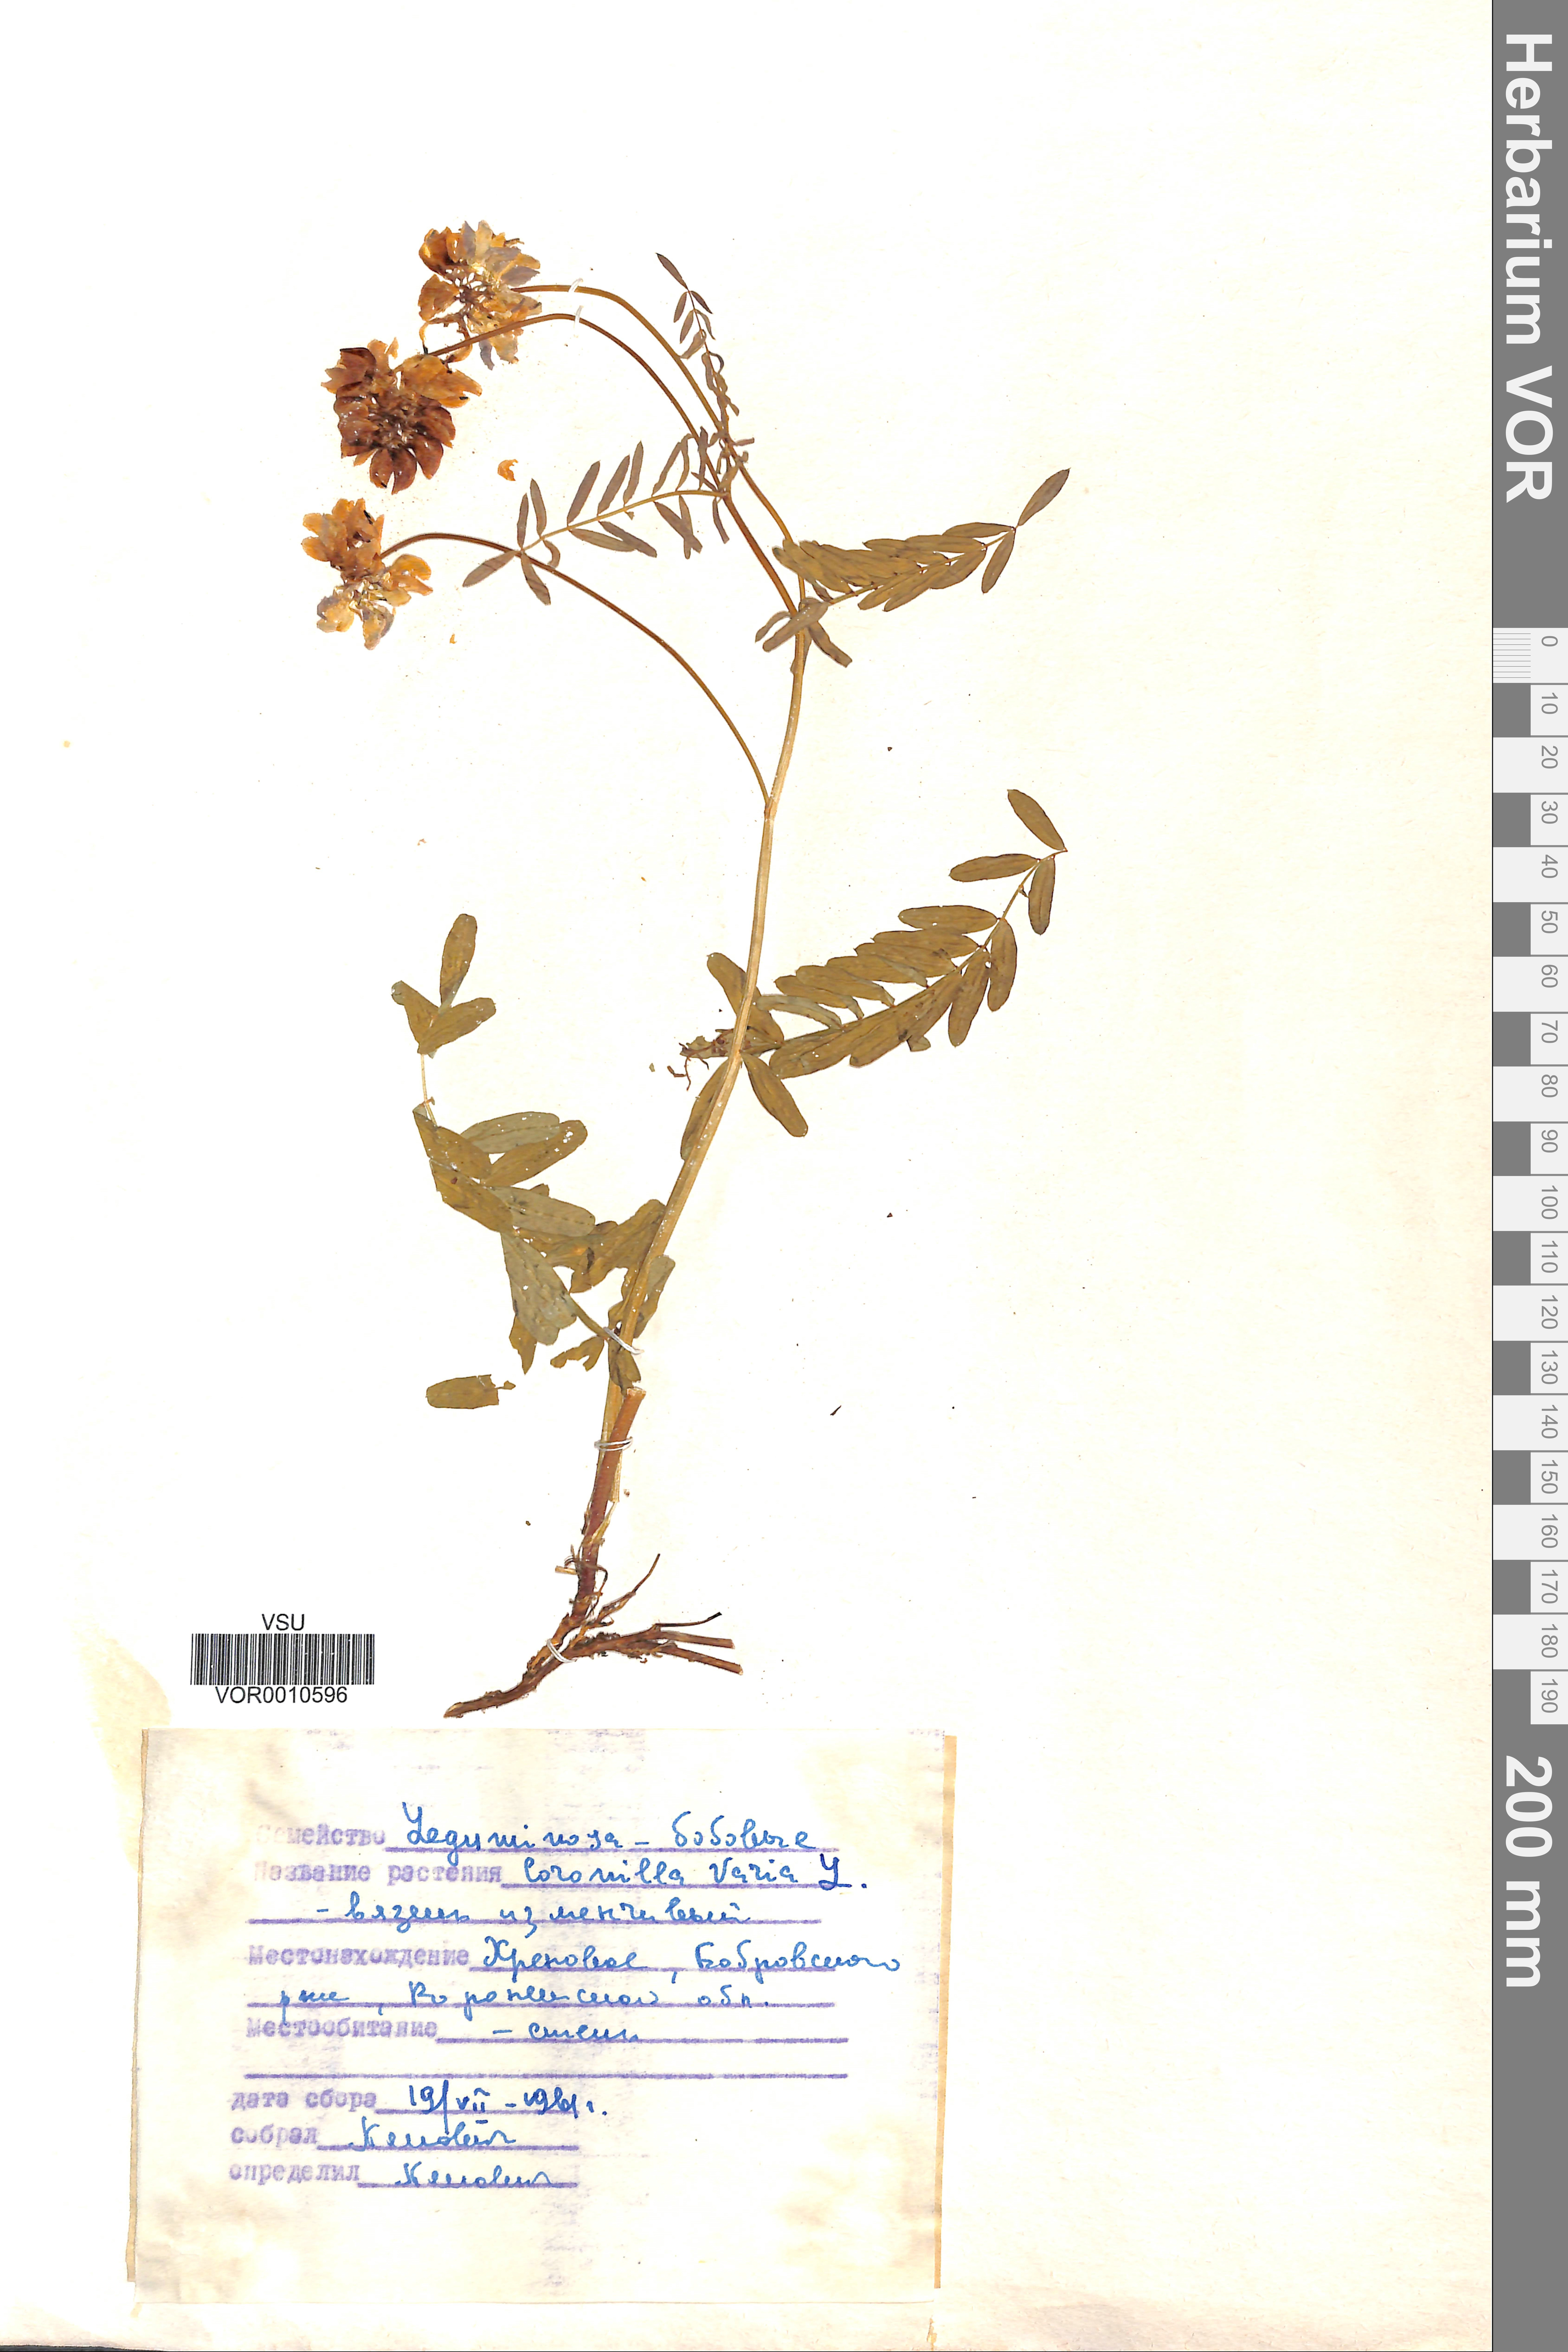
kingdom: Plantae
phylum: Tracheophyta
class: Magnoliopsida
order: Fabales
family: Fabaceae
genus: Coronilla
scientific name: Coronilla varia
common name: Crownvetch
